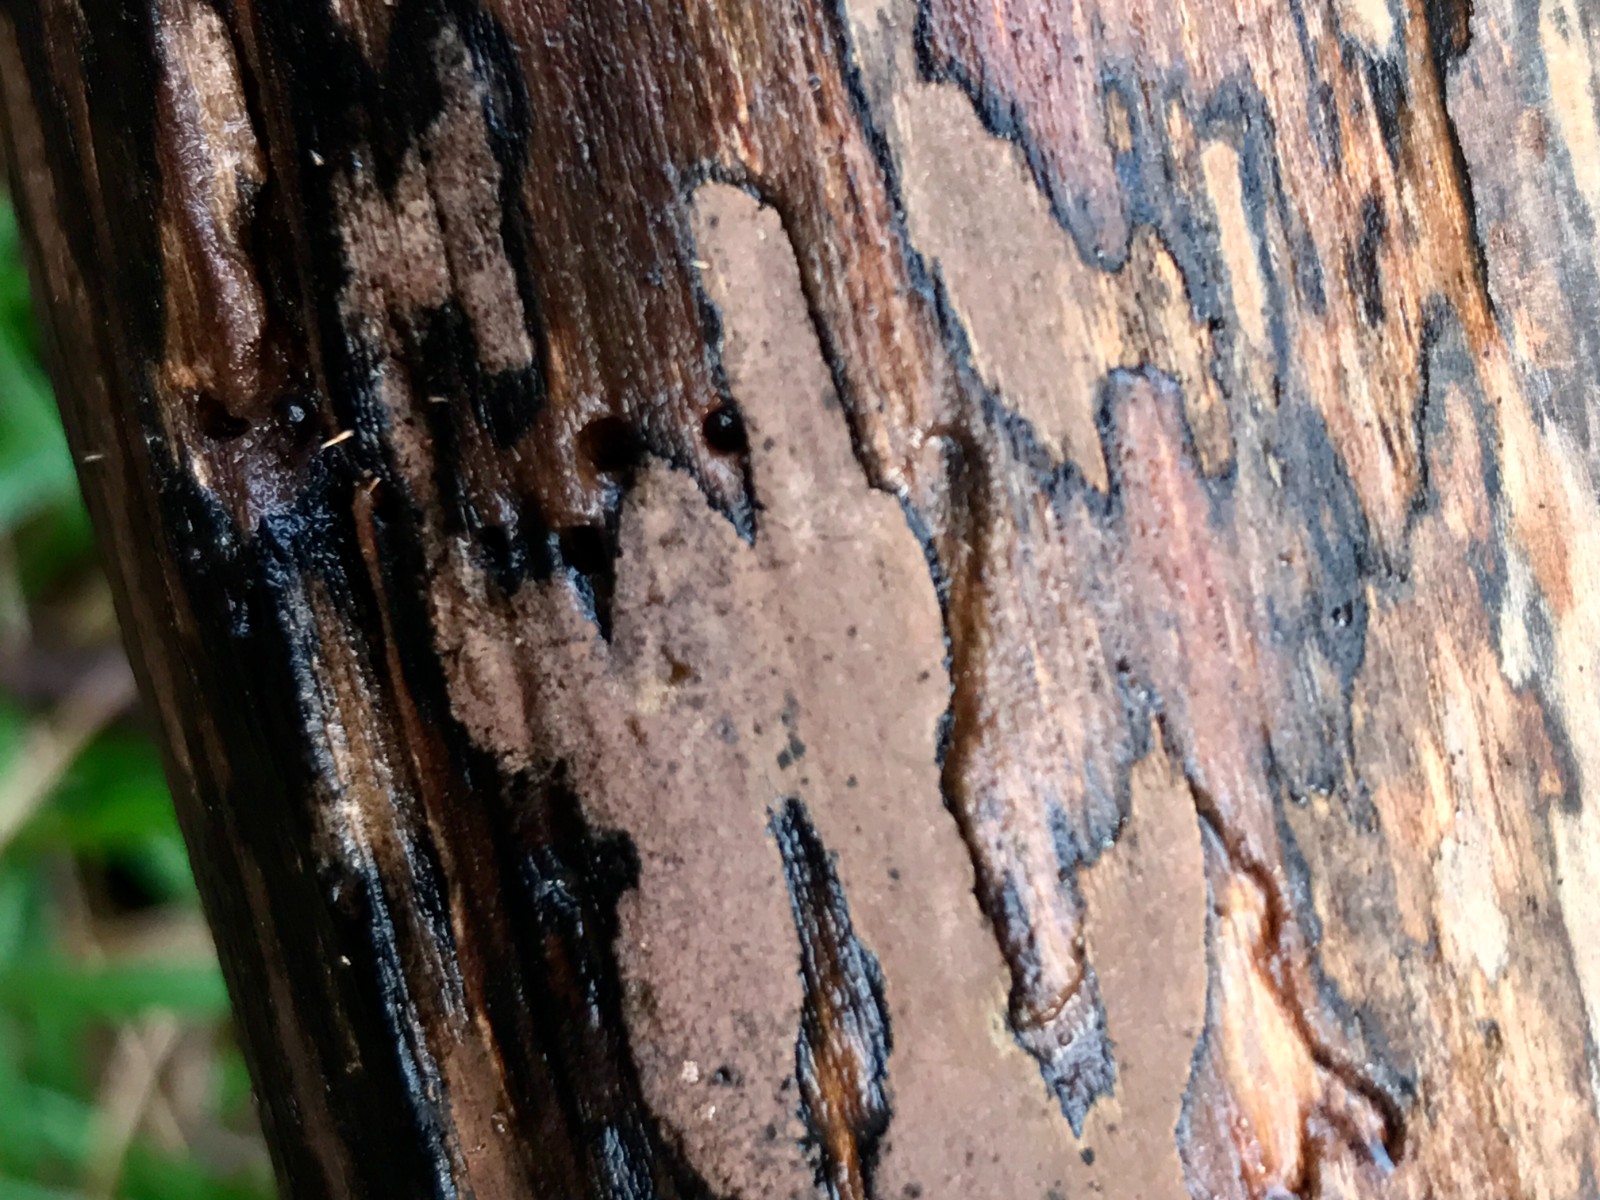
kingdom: Fungi
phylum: Ascomycota
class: Sordariomycetes
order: Xylariales
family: Hypoxylaceae
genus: Hypoxylon
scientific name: Hypoxylon petriniae
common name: nedsænket kulbær
